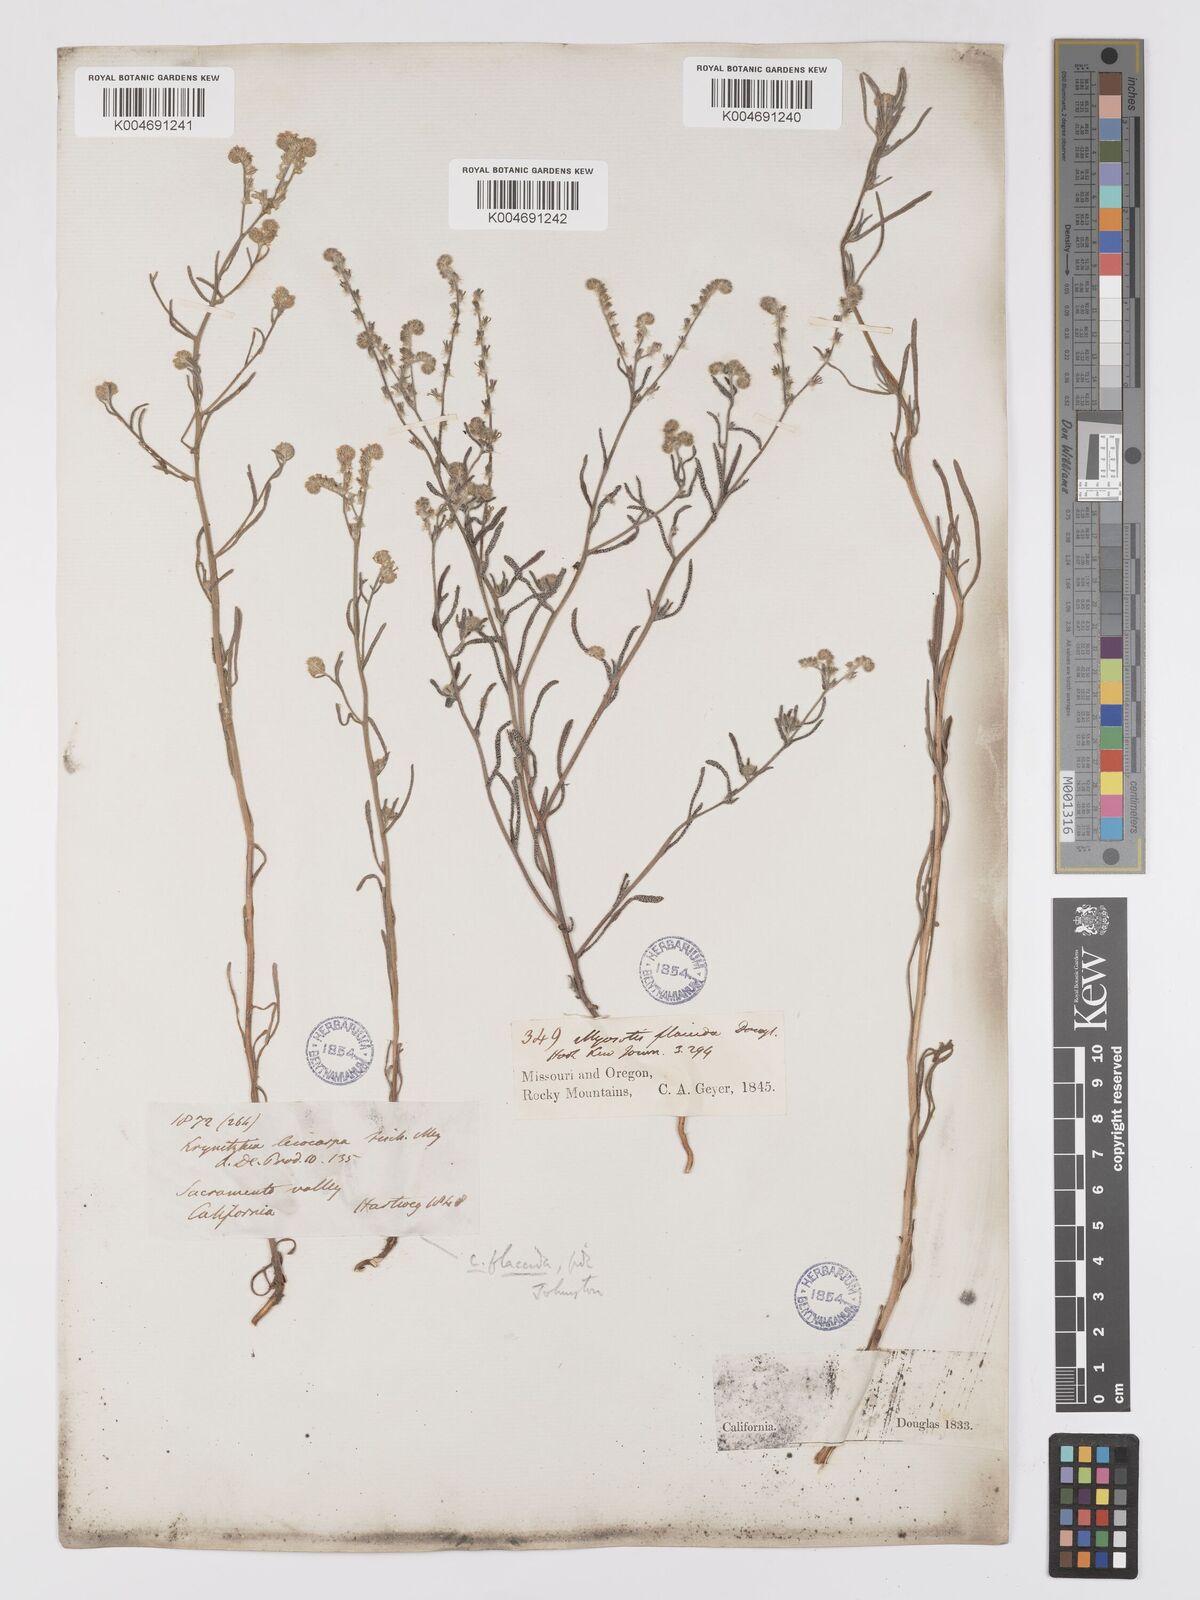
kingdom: Plantae
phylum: Tracheophyta
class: Magnoliopsida
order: Boraginales
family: Boraginaceae
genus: Cryptantha
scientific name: Cryptantha flaccida
